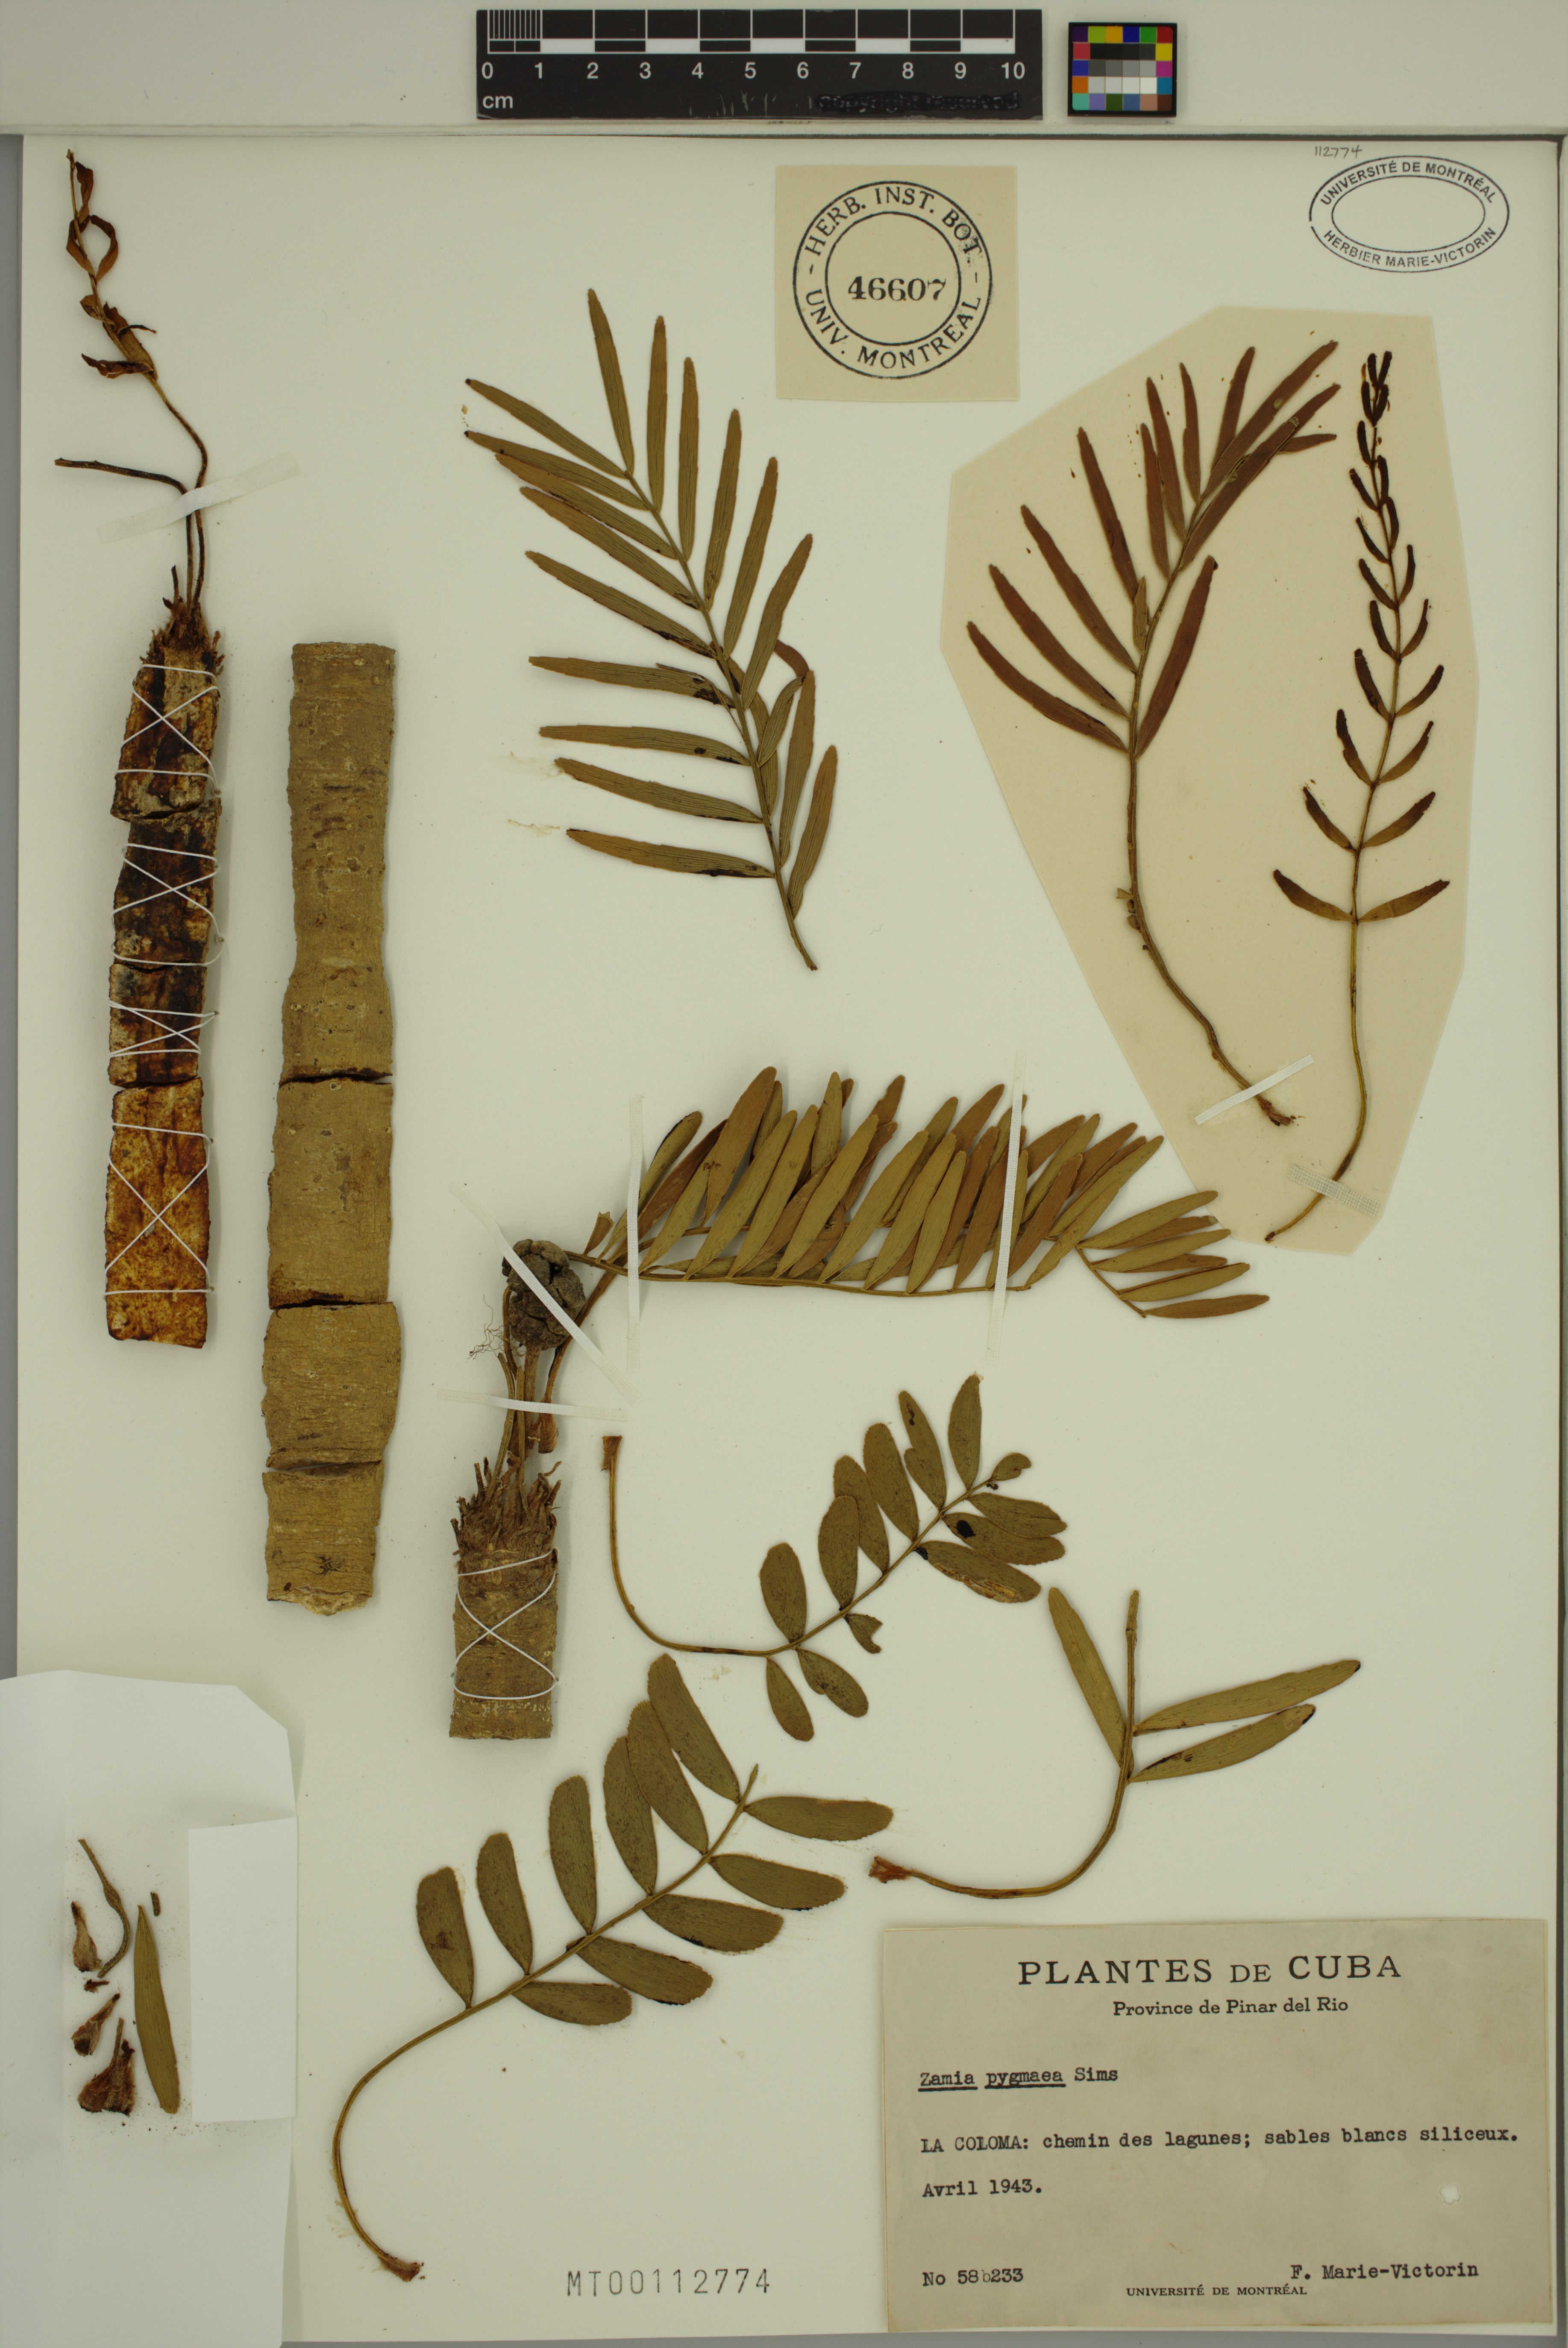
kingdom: Plantae
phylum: Tracheophyta
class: Cycadopsida
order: Cycadales
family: Zamiaceae
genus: Zamia
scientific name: Zamia pygmaea
